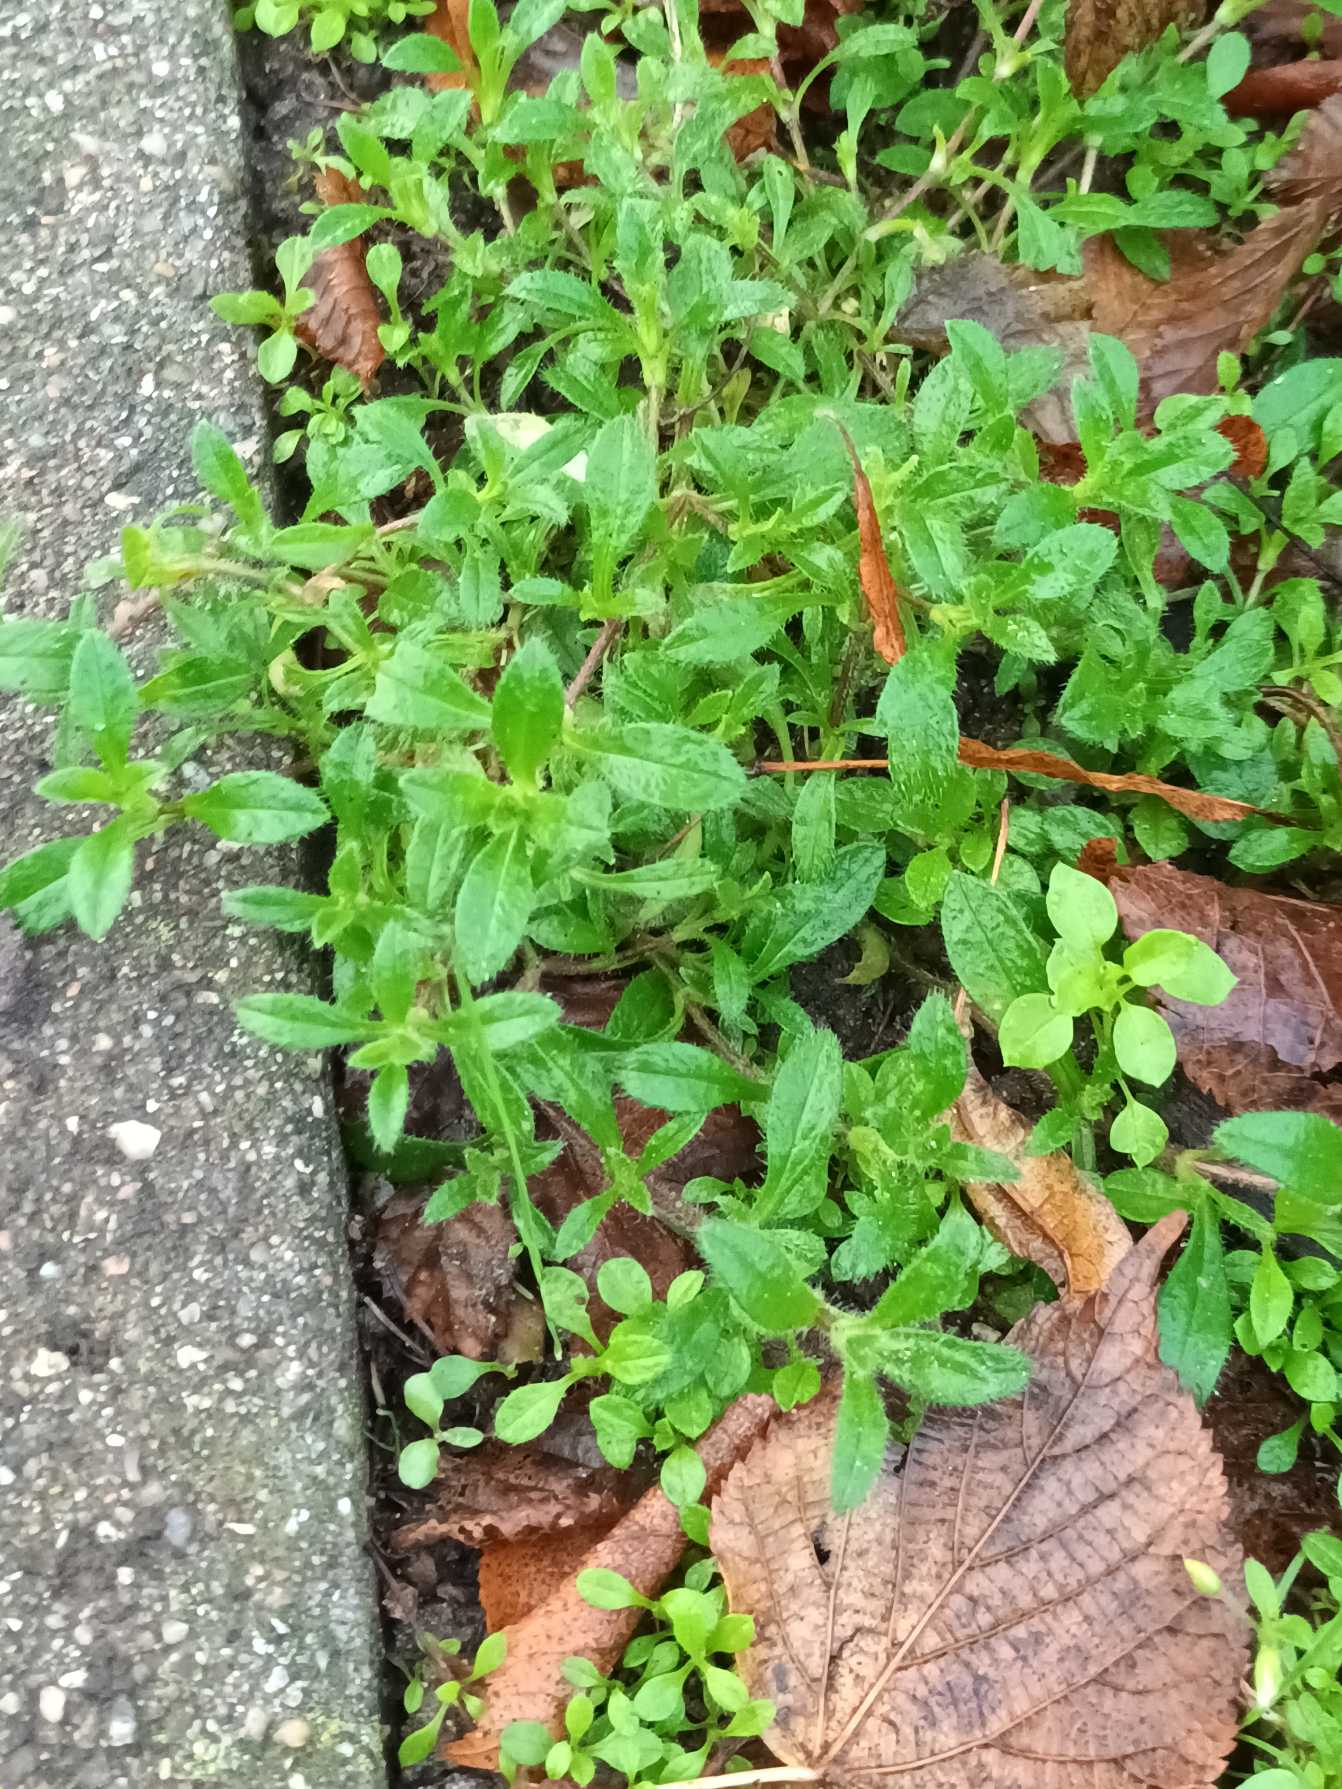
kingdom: Plantae
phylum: Tracheophyta
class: Magnoliopsida
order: Caryophyllales
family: Caryophyllaceae
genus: Cerastium
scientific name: Cerastium fontanum
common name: Almindelig hønsetarm
